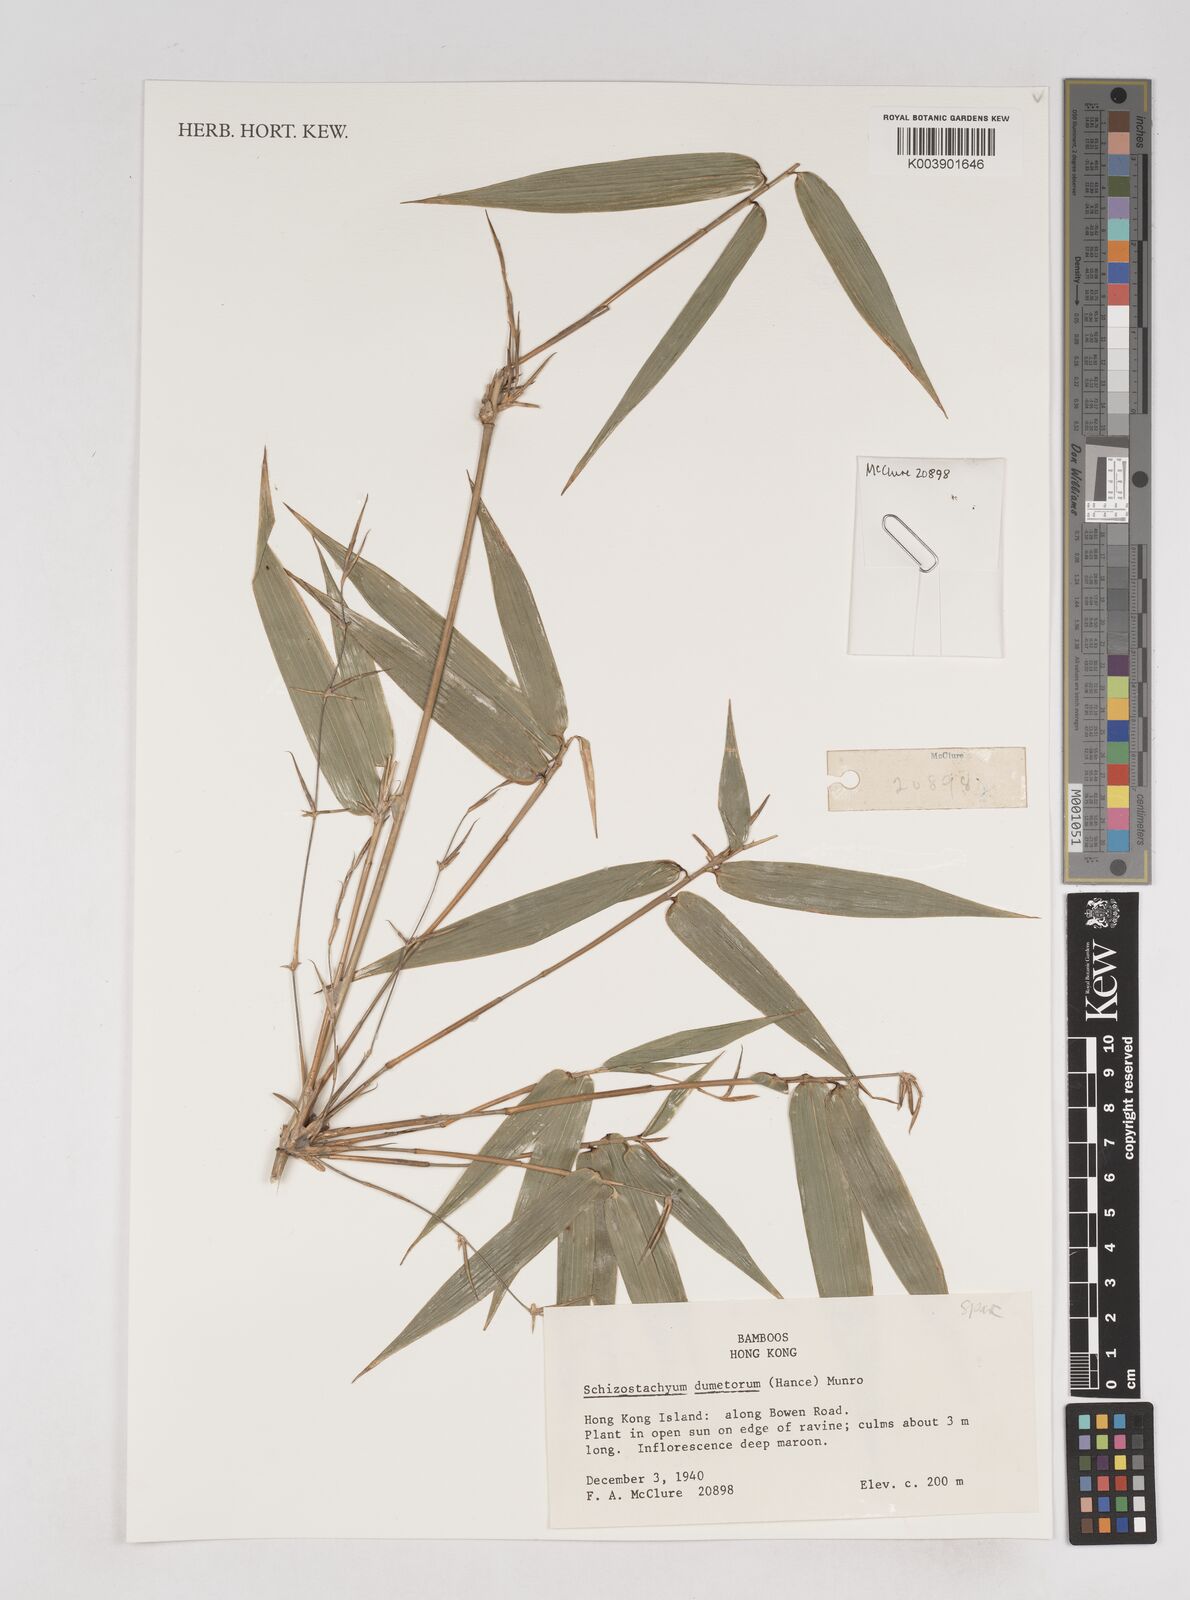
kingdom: Plantae
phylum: Tracheophyta
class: Liliopsida
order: Poales
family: Poaceae
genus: Schizostachyum
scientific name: Schizostachyum dumetorum
